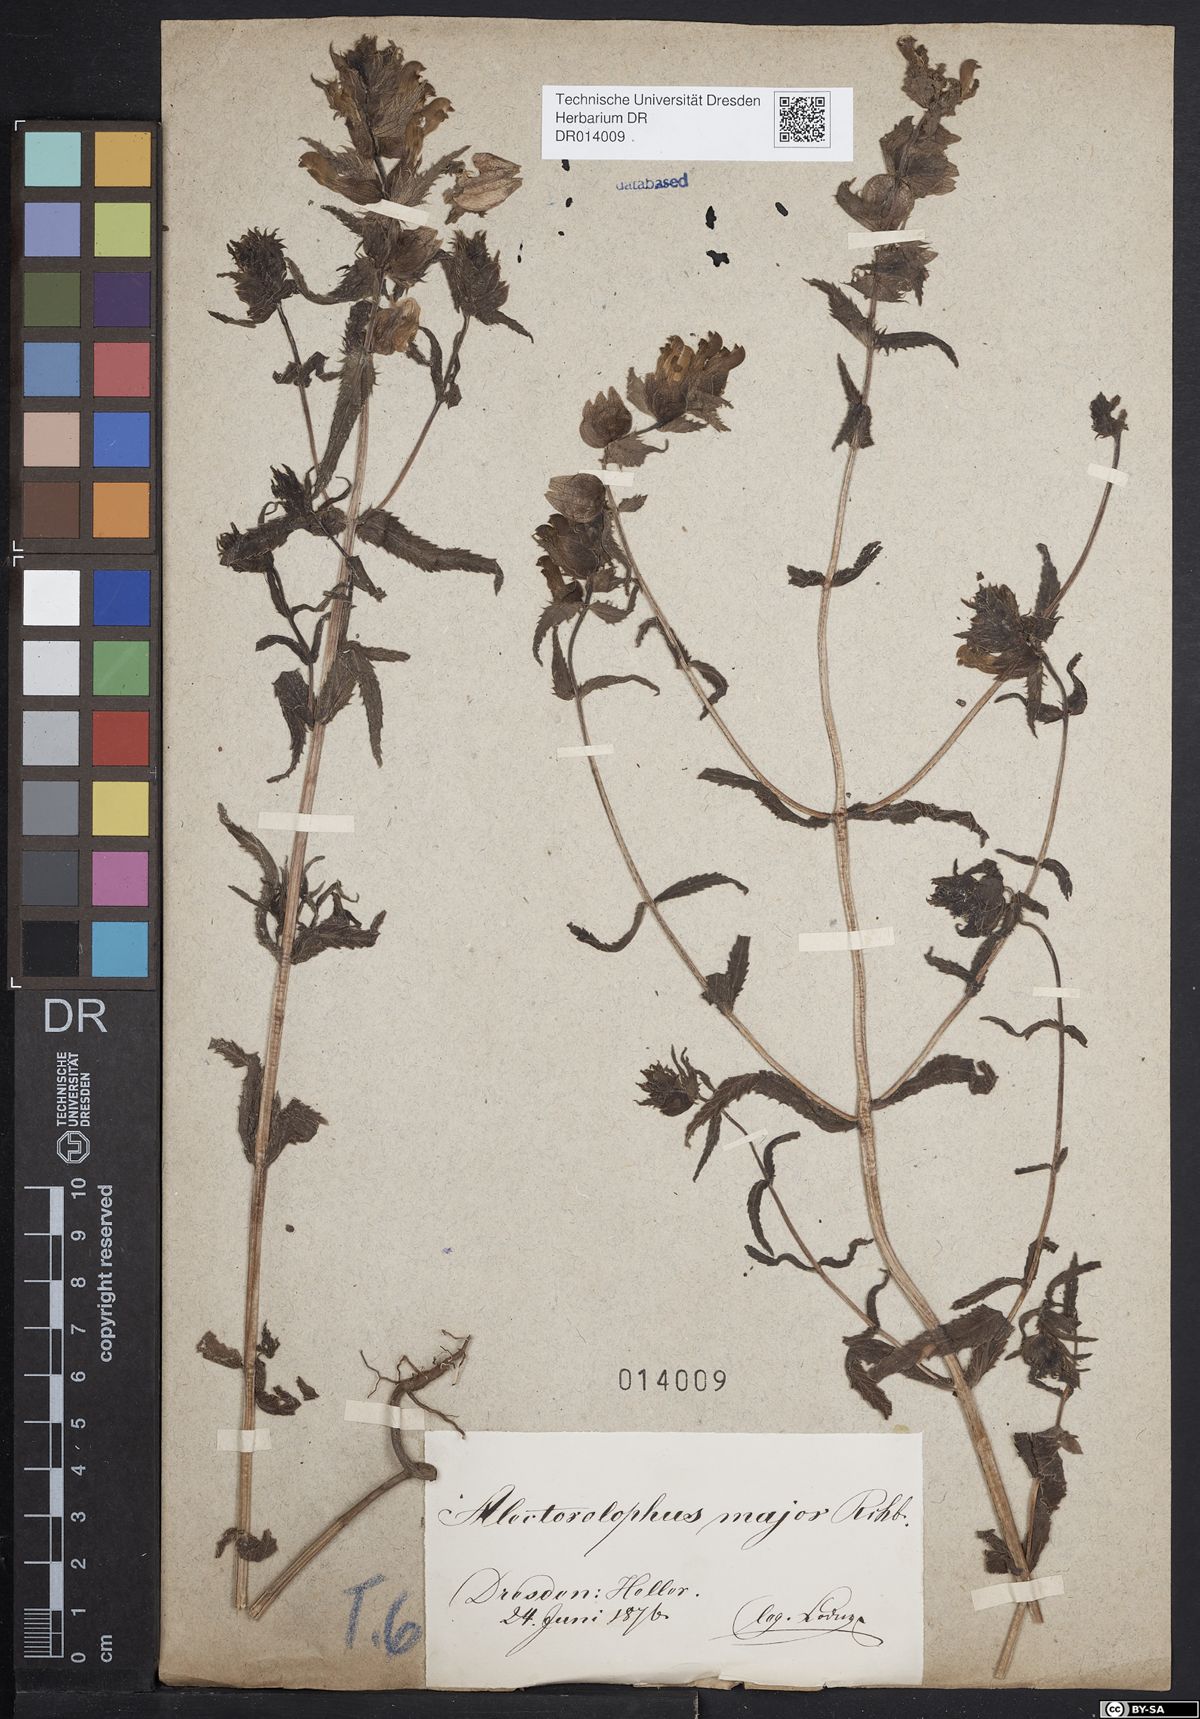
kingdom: Plantae
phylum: Tracheophyta
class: Magnoliopsida
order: Lamiales
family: Orobanchaceae
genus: Rhinanthus
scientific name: Rhinanthus serotinus
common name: Late-flowering yellow rattle
